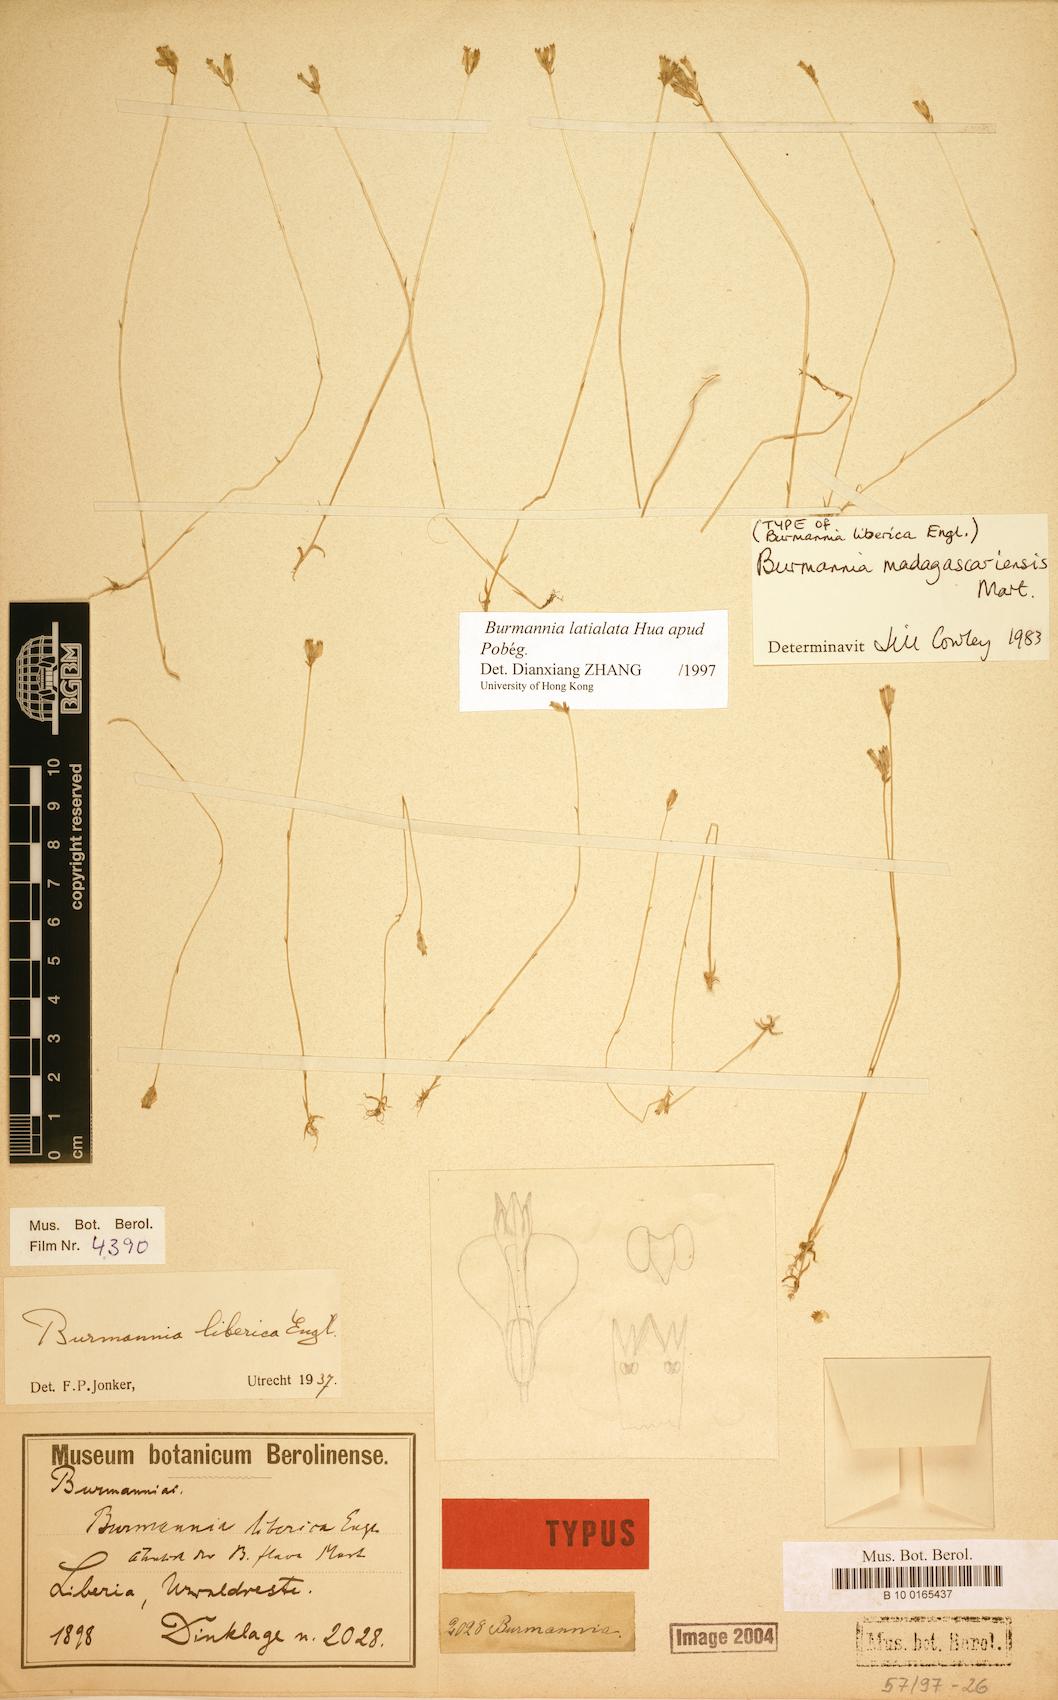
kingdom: Plantae
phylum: Tracheophyta
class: Liliopsida
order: Dioscoreales
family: Burmanniaceae
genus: Burmannia
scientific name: Burmannia latialata
